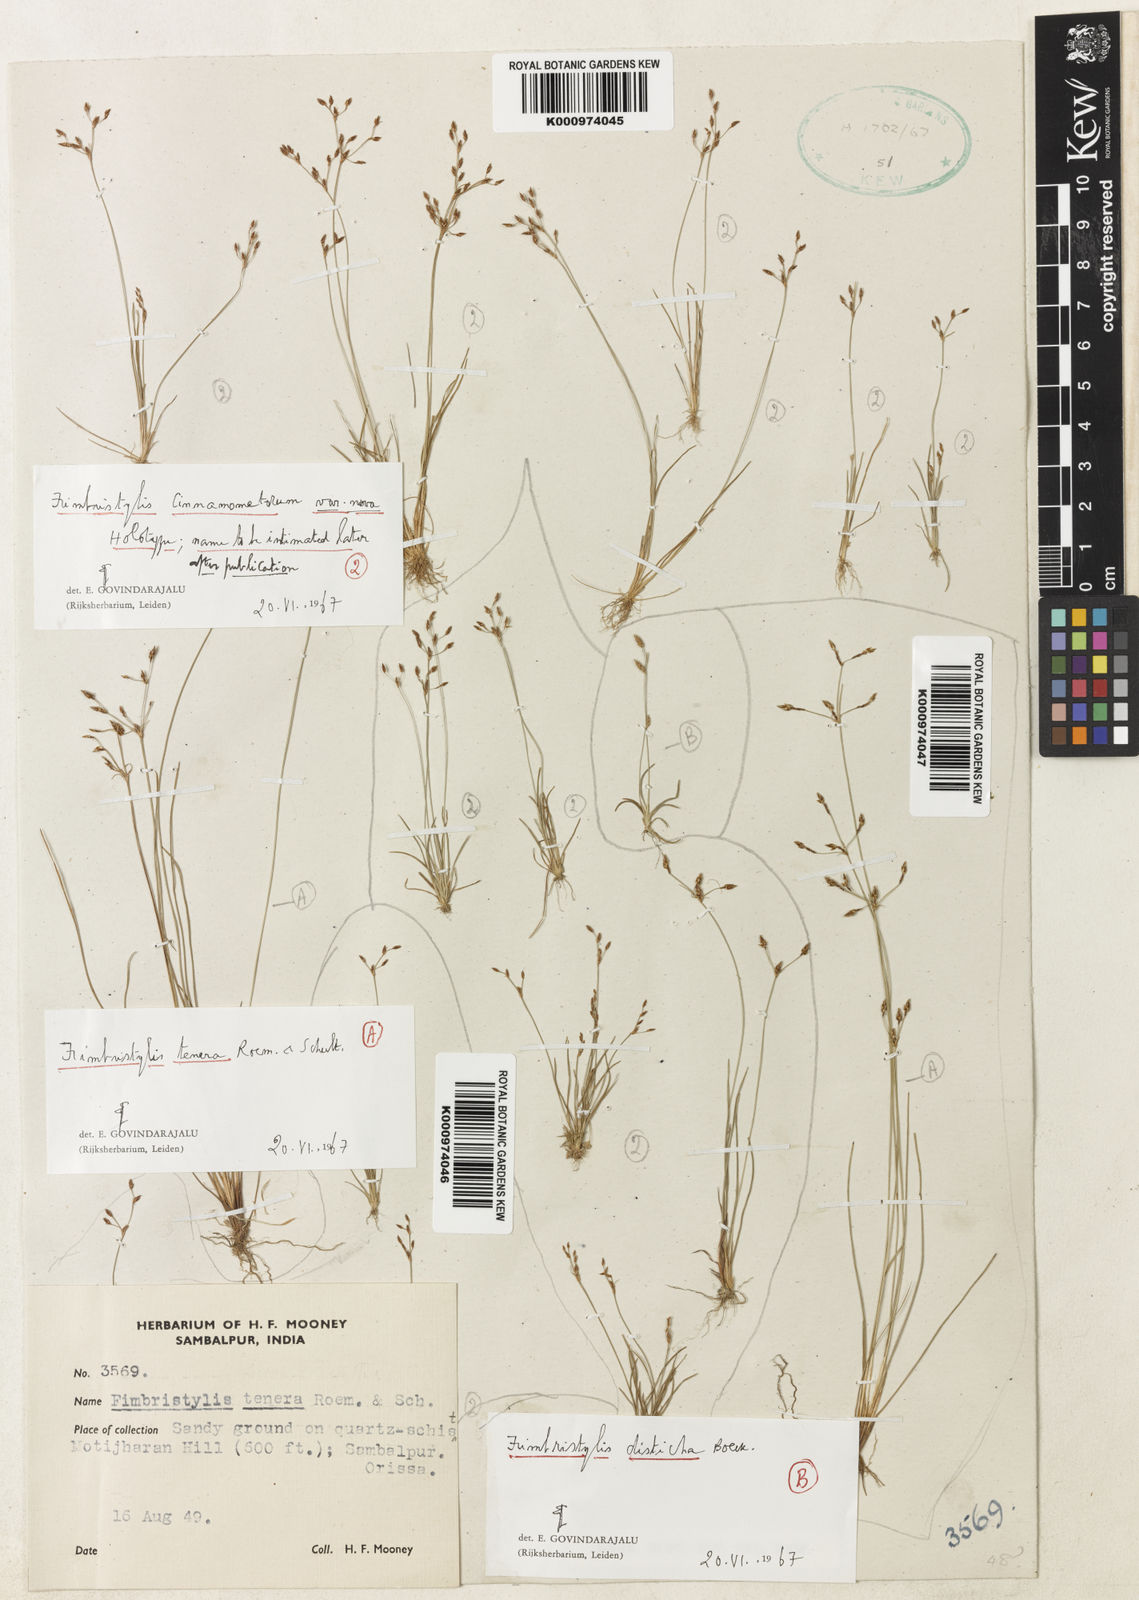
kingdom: Plantae
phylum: Tracheophyta
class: Liliopsida
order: Poales
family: Cyperaceae
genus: Fimbristylis
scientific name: Fimbristylis cinnamometorum
